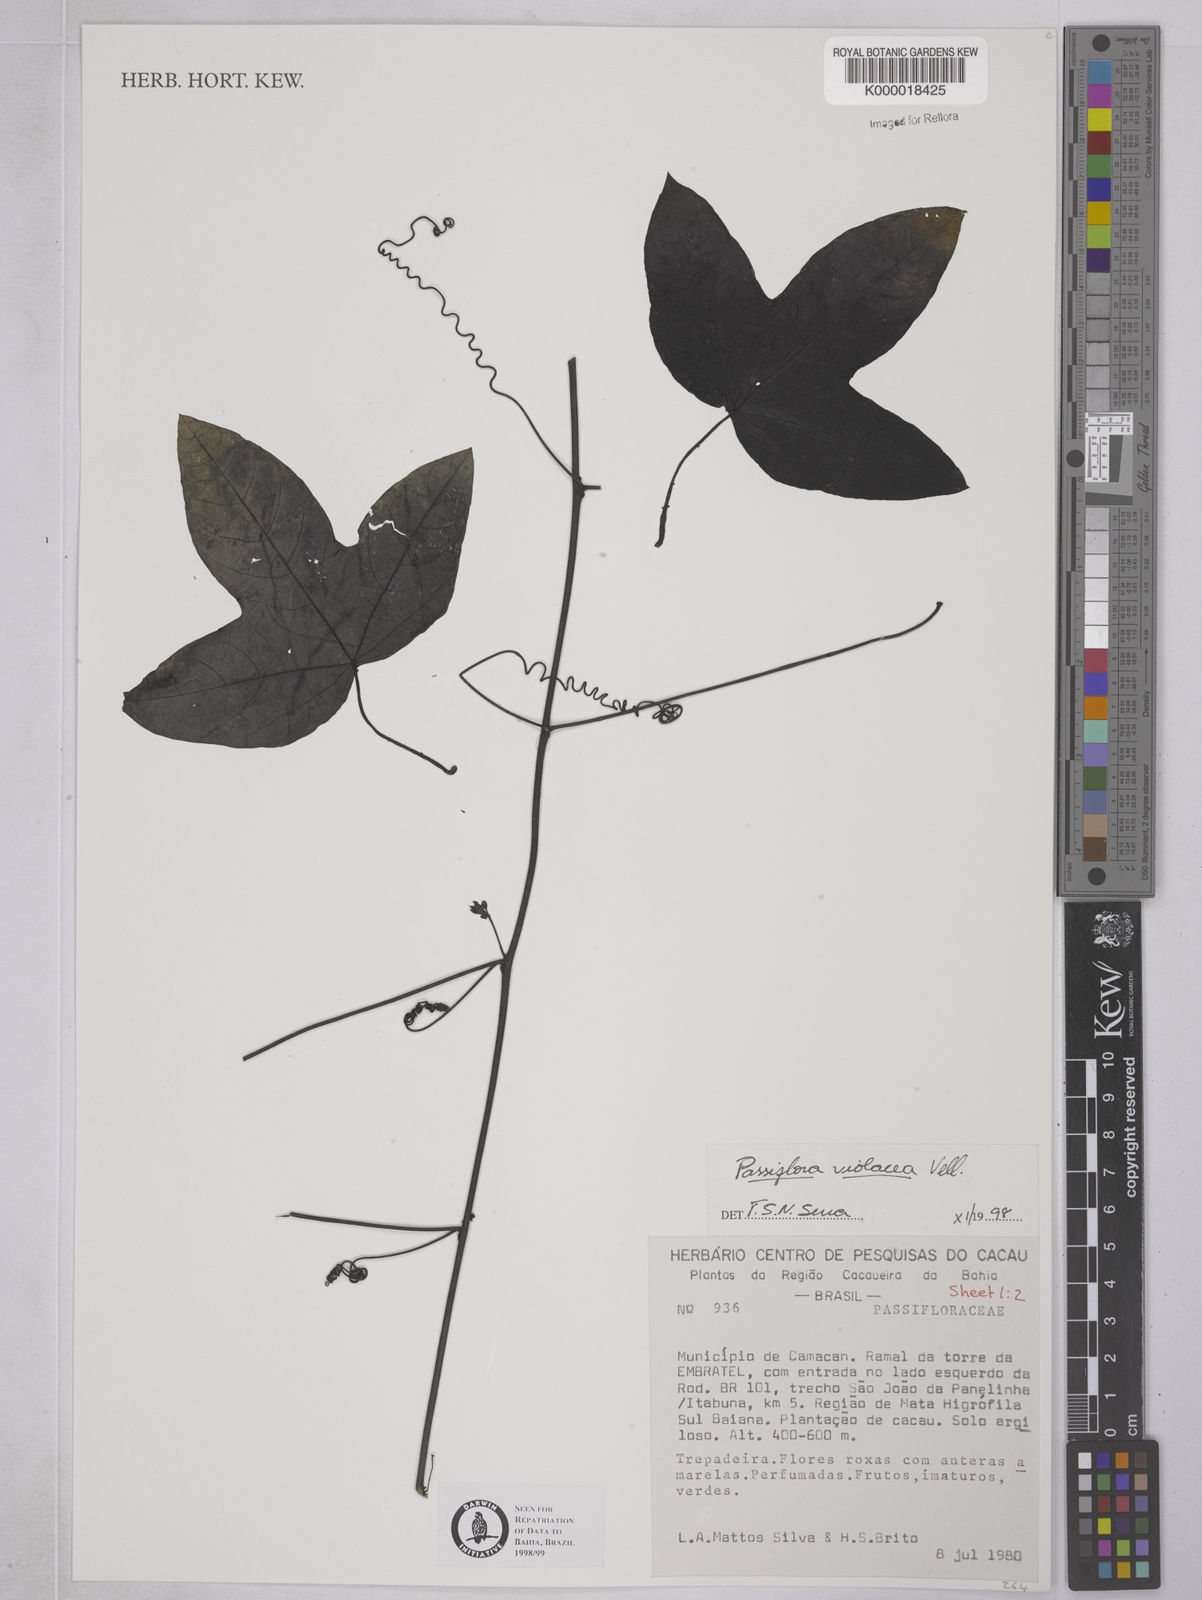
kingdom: Plantae
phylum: Tracheophyta
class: Magnoliopsida
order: Malpighiales
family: Passifloraceae
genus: Passiflora
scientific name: Passiflora vitifolia
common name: Perfumed passionflower
